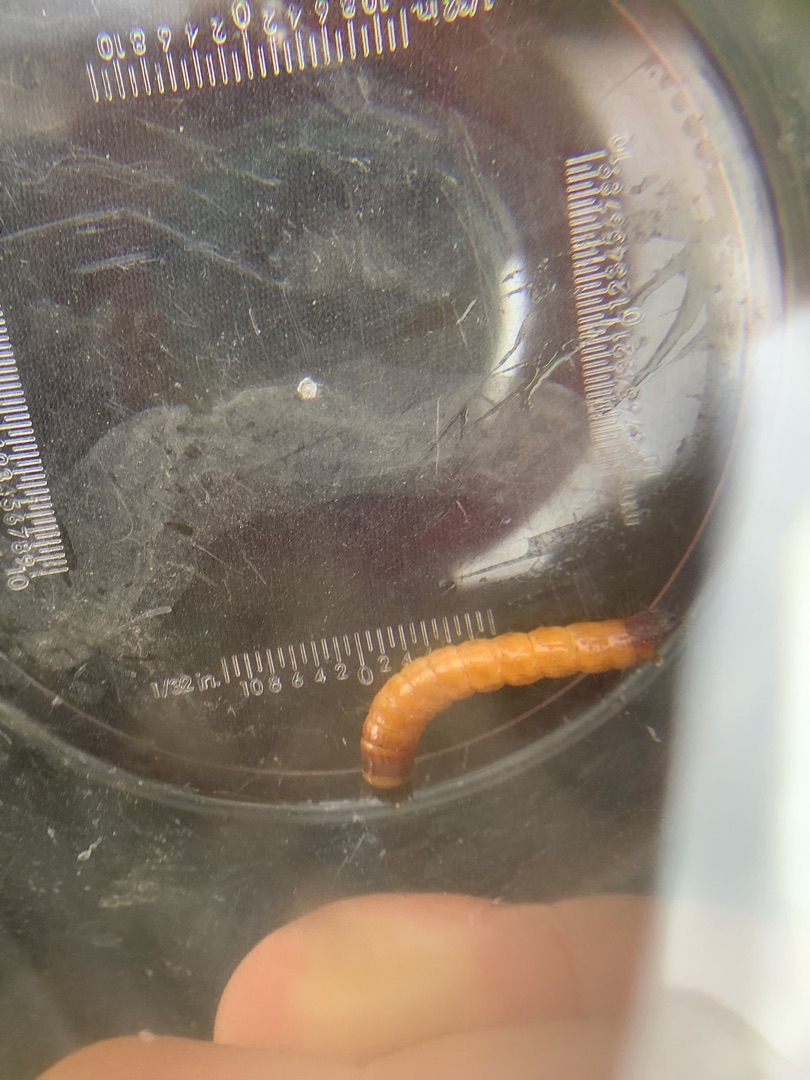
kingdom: Animalia
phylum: Arthropoda
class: Insecta
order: Coleoptera
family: Elateridae
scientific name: Elateridae
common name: Smældere
